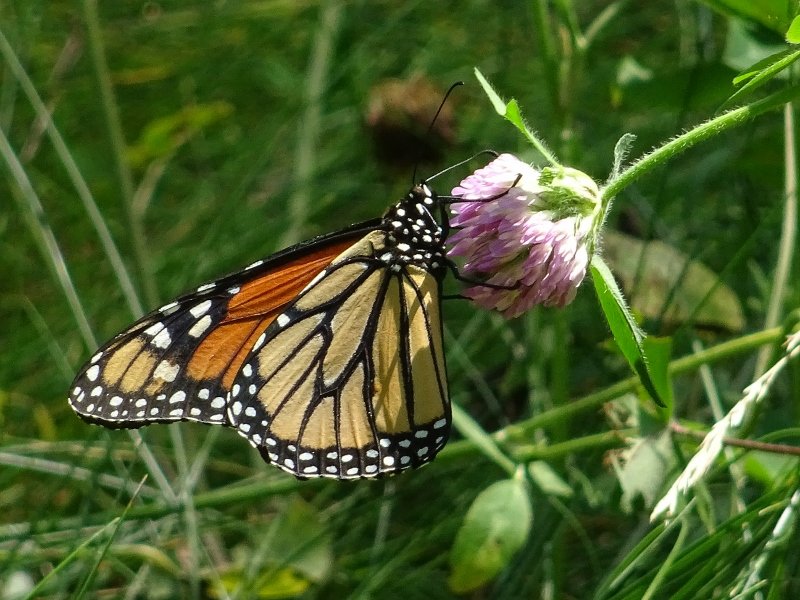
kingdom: Animalia
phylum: Arthropoda
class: Insecta
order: Lepidoptera
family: Nymphalidae
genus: Danaus
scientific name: Danaus plexippus
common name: Monarch
